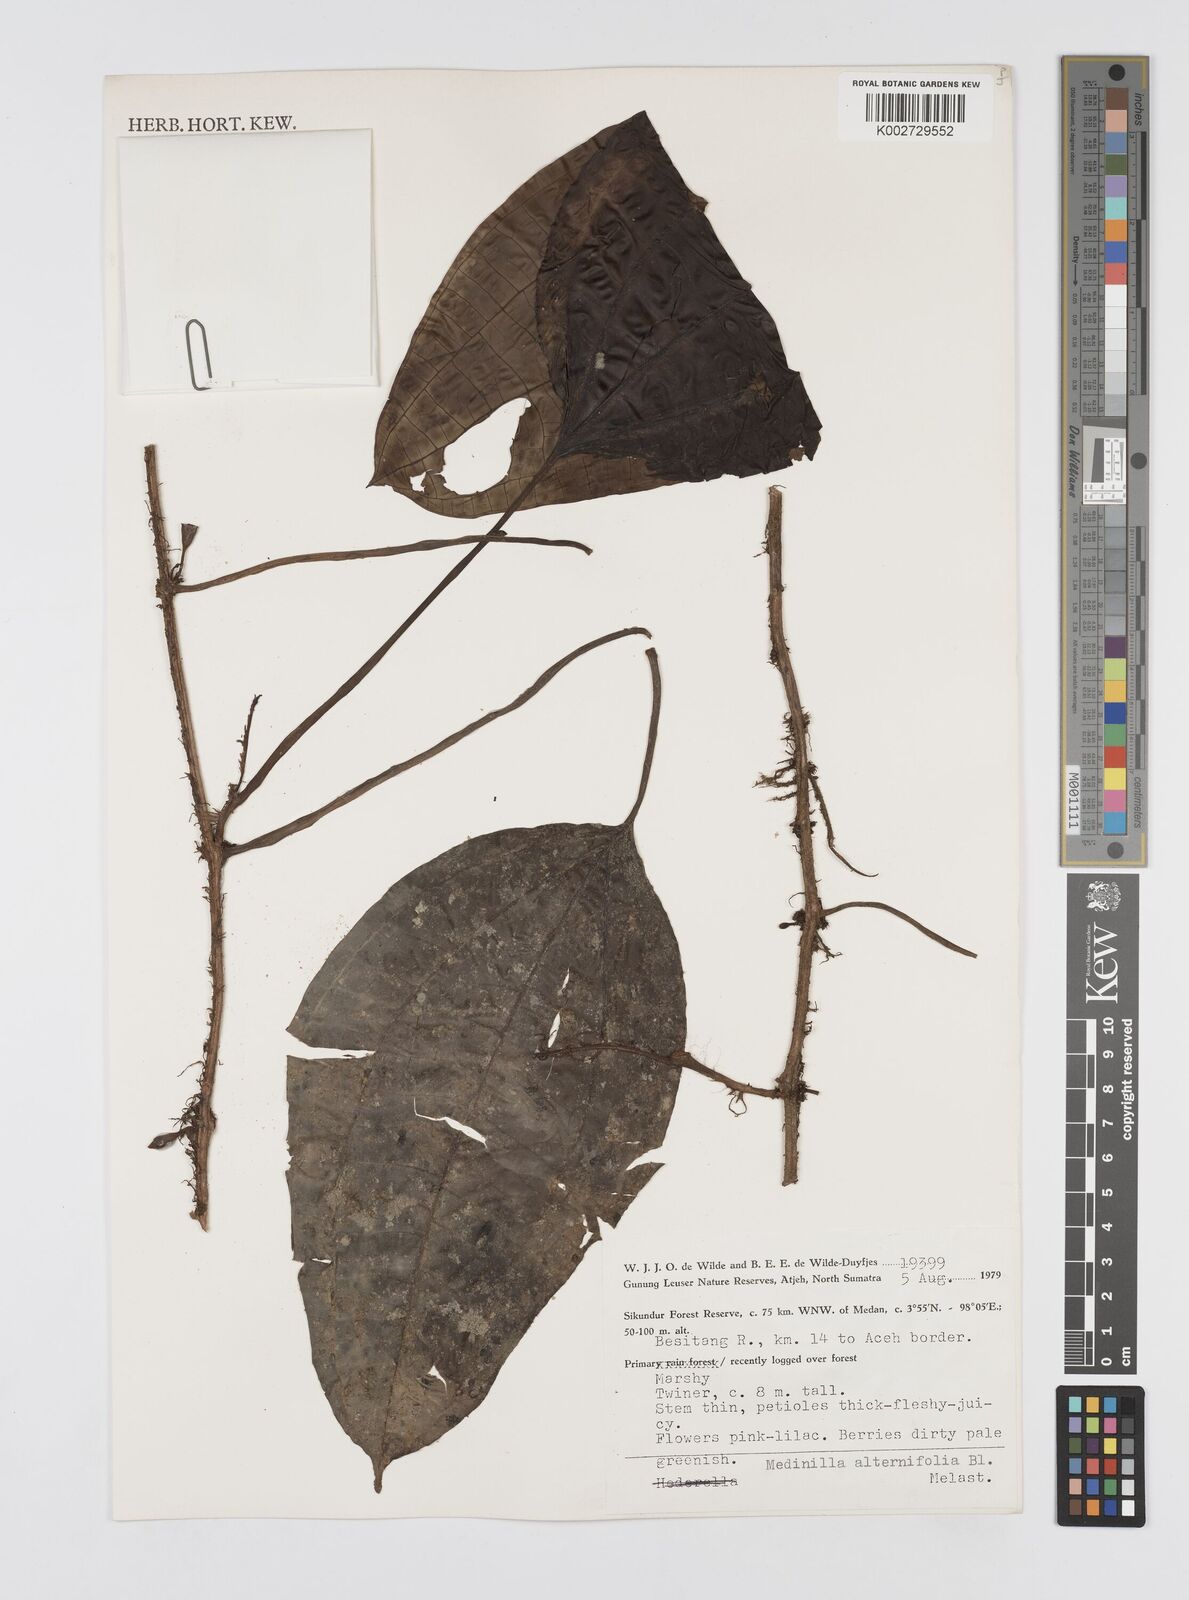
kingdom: Plantae
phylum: Tracheophyta
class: Magnoliopsida
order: Myrtales
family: Melastomataceae
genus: Heteroblemma
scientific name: Heteroblemma alternifolium
